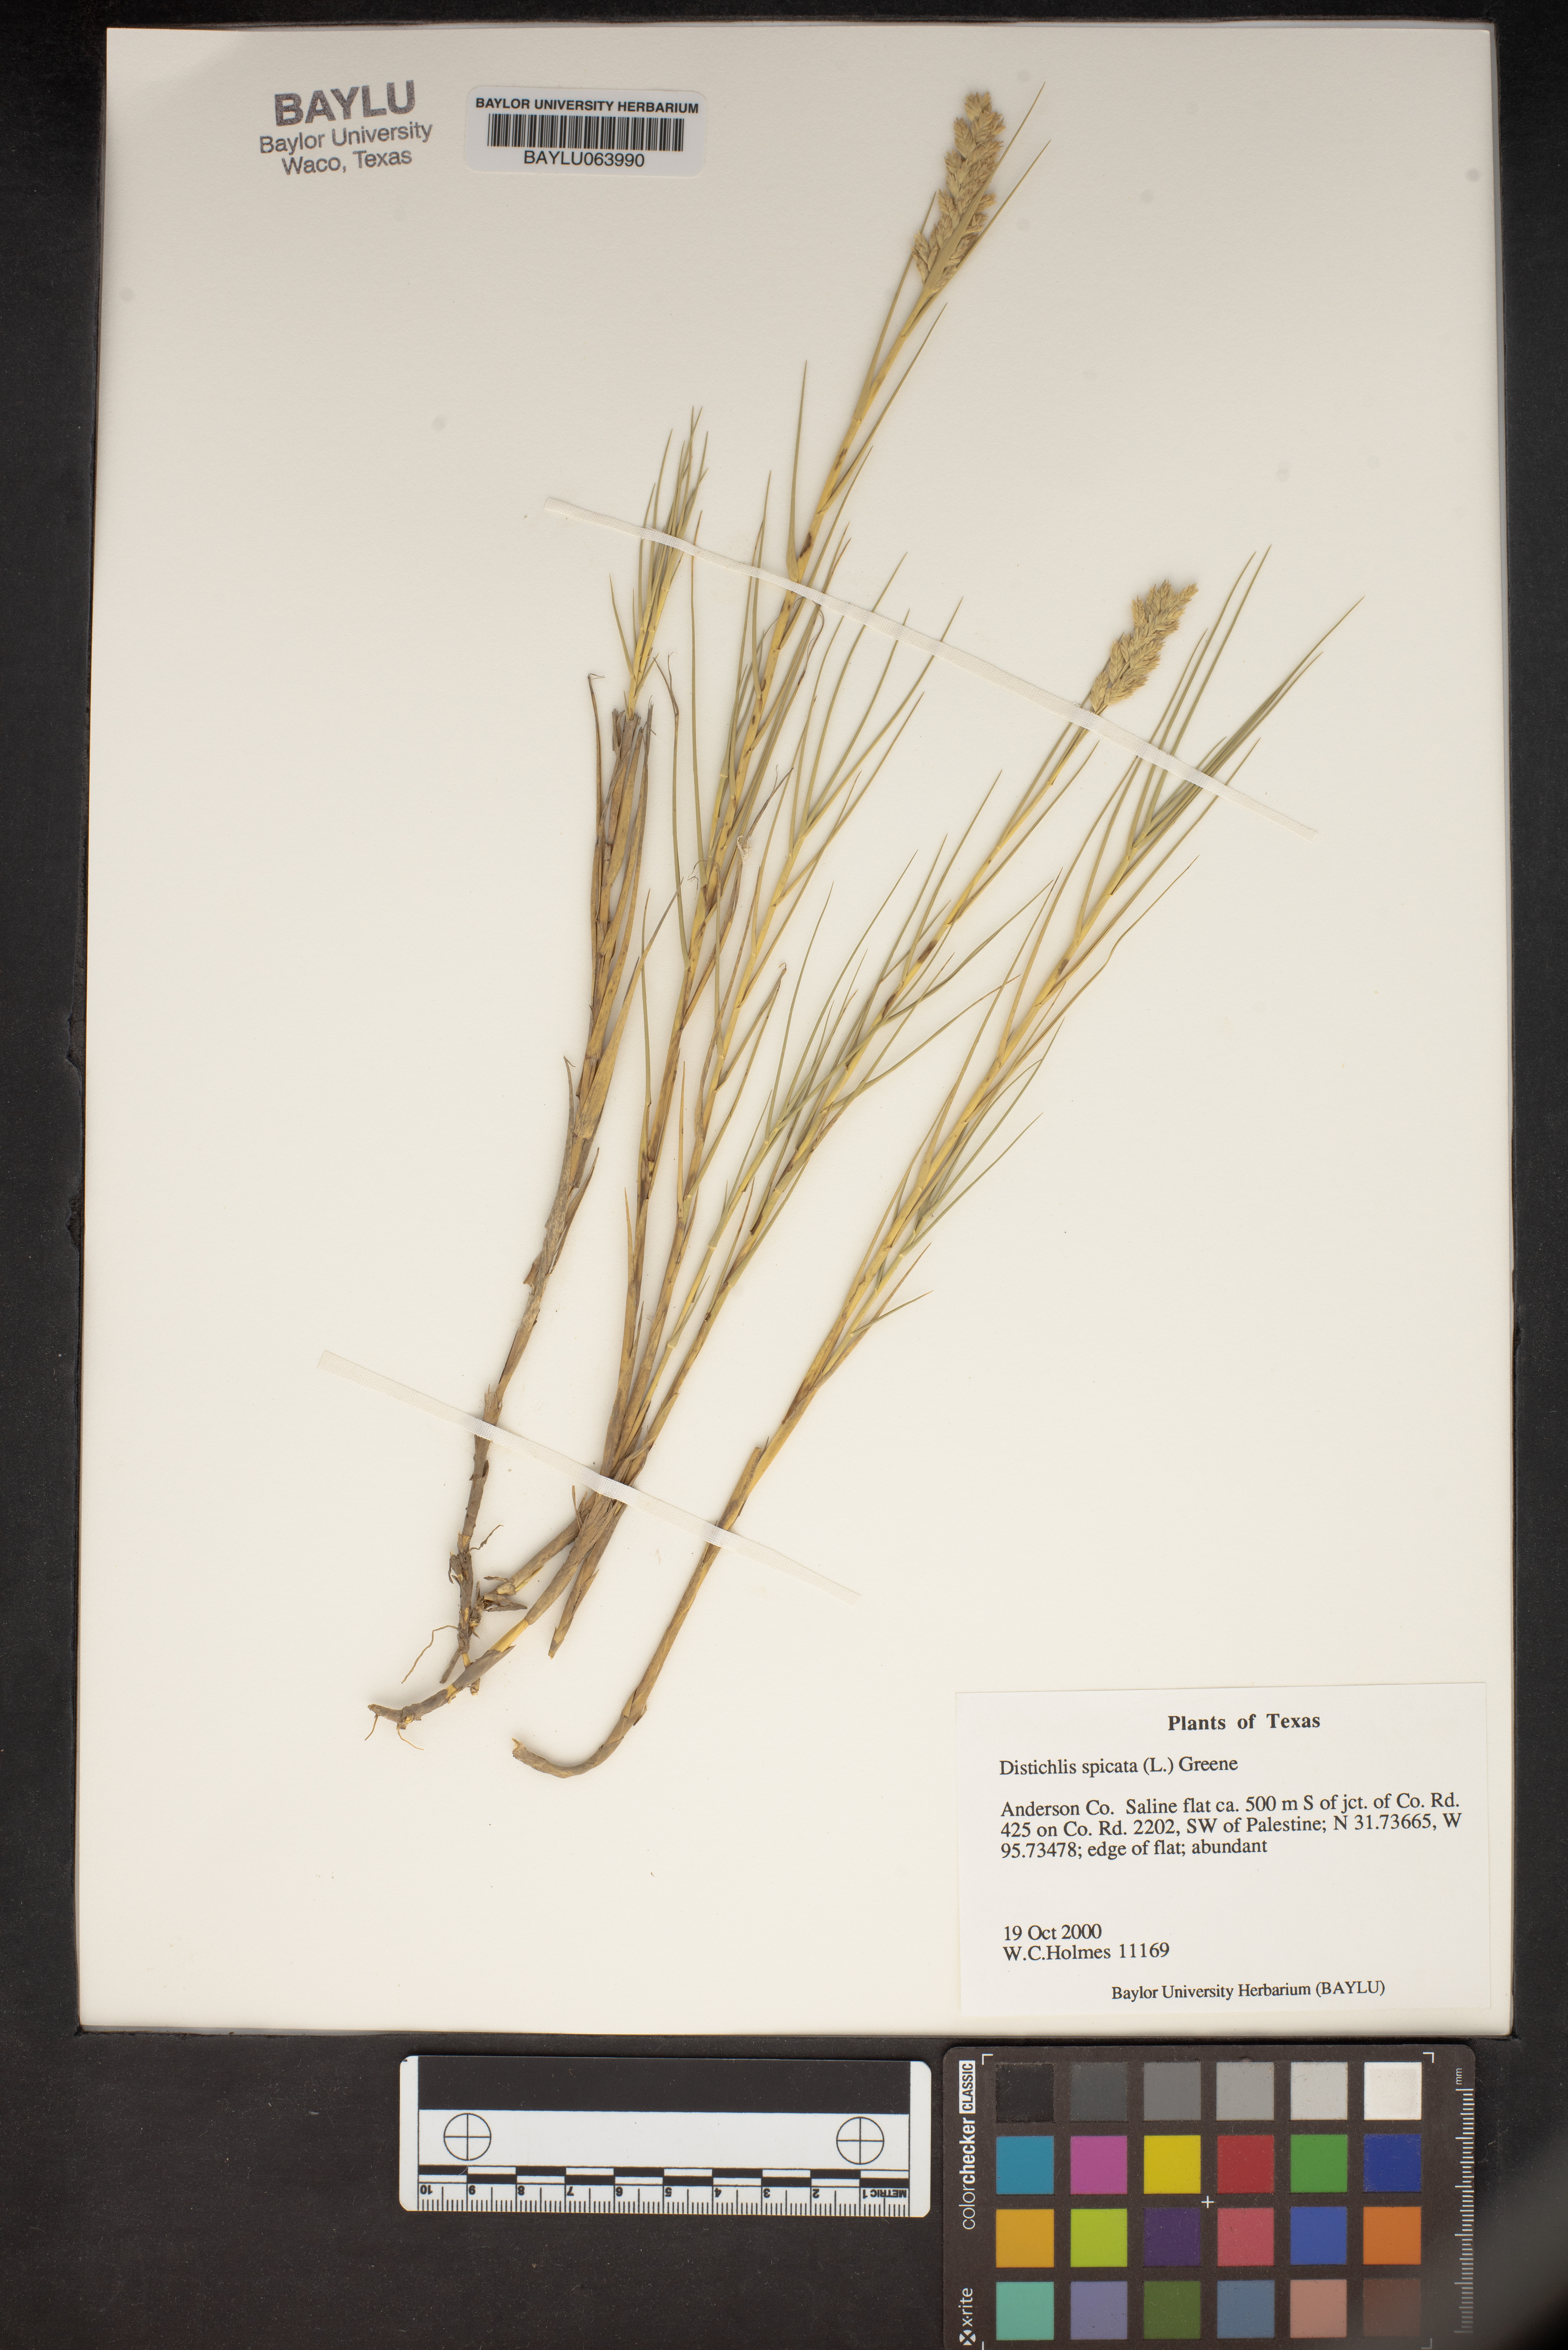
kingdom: Plantae
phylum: Tracheophyta
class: Liliopsida
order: Poales
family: Poaceae
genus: Distichlis
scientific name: Distichlis spicata
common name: Saltgrass
